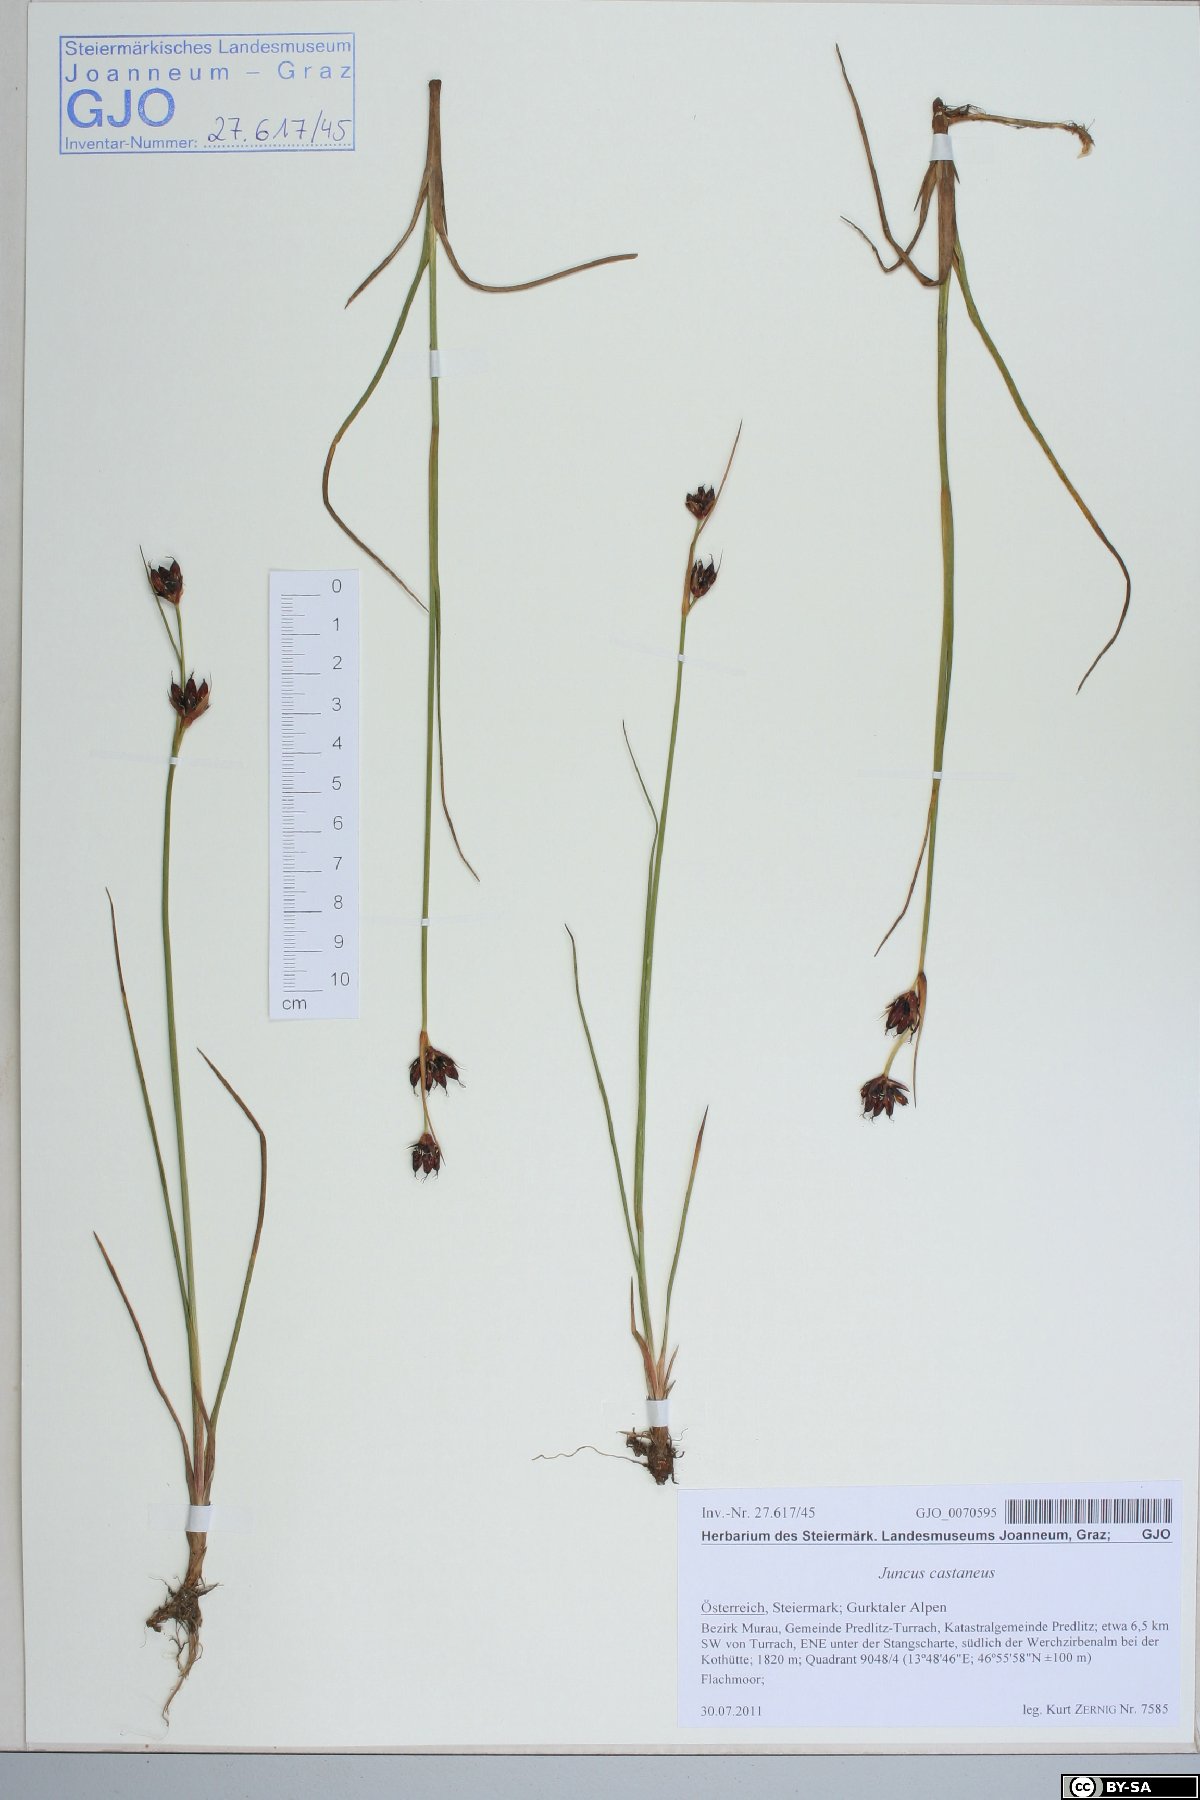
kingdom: Plantae
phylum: Tracheophyta
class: Liliopsida
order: Poales
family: Juncaceae
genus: Juncus
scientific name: Juncus castaneus
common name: Chestnut rush
